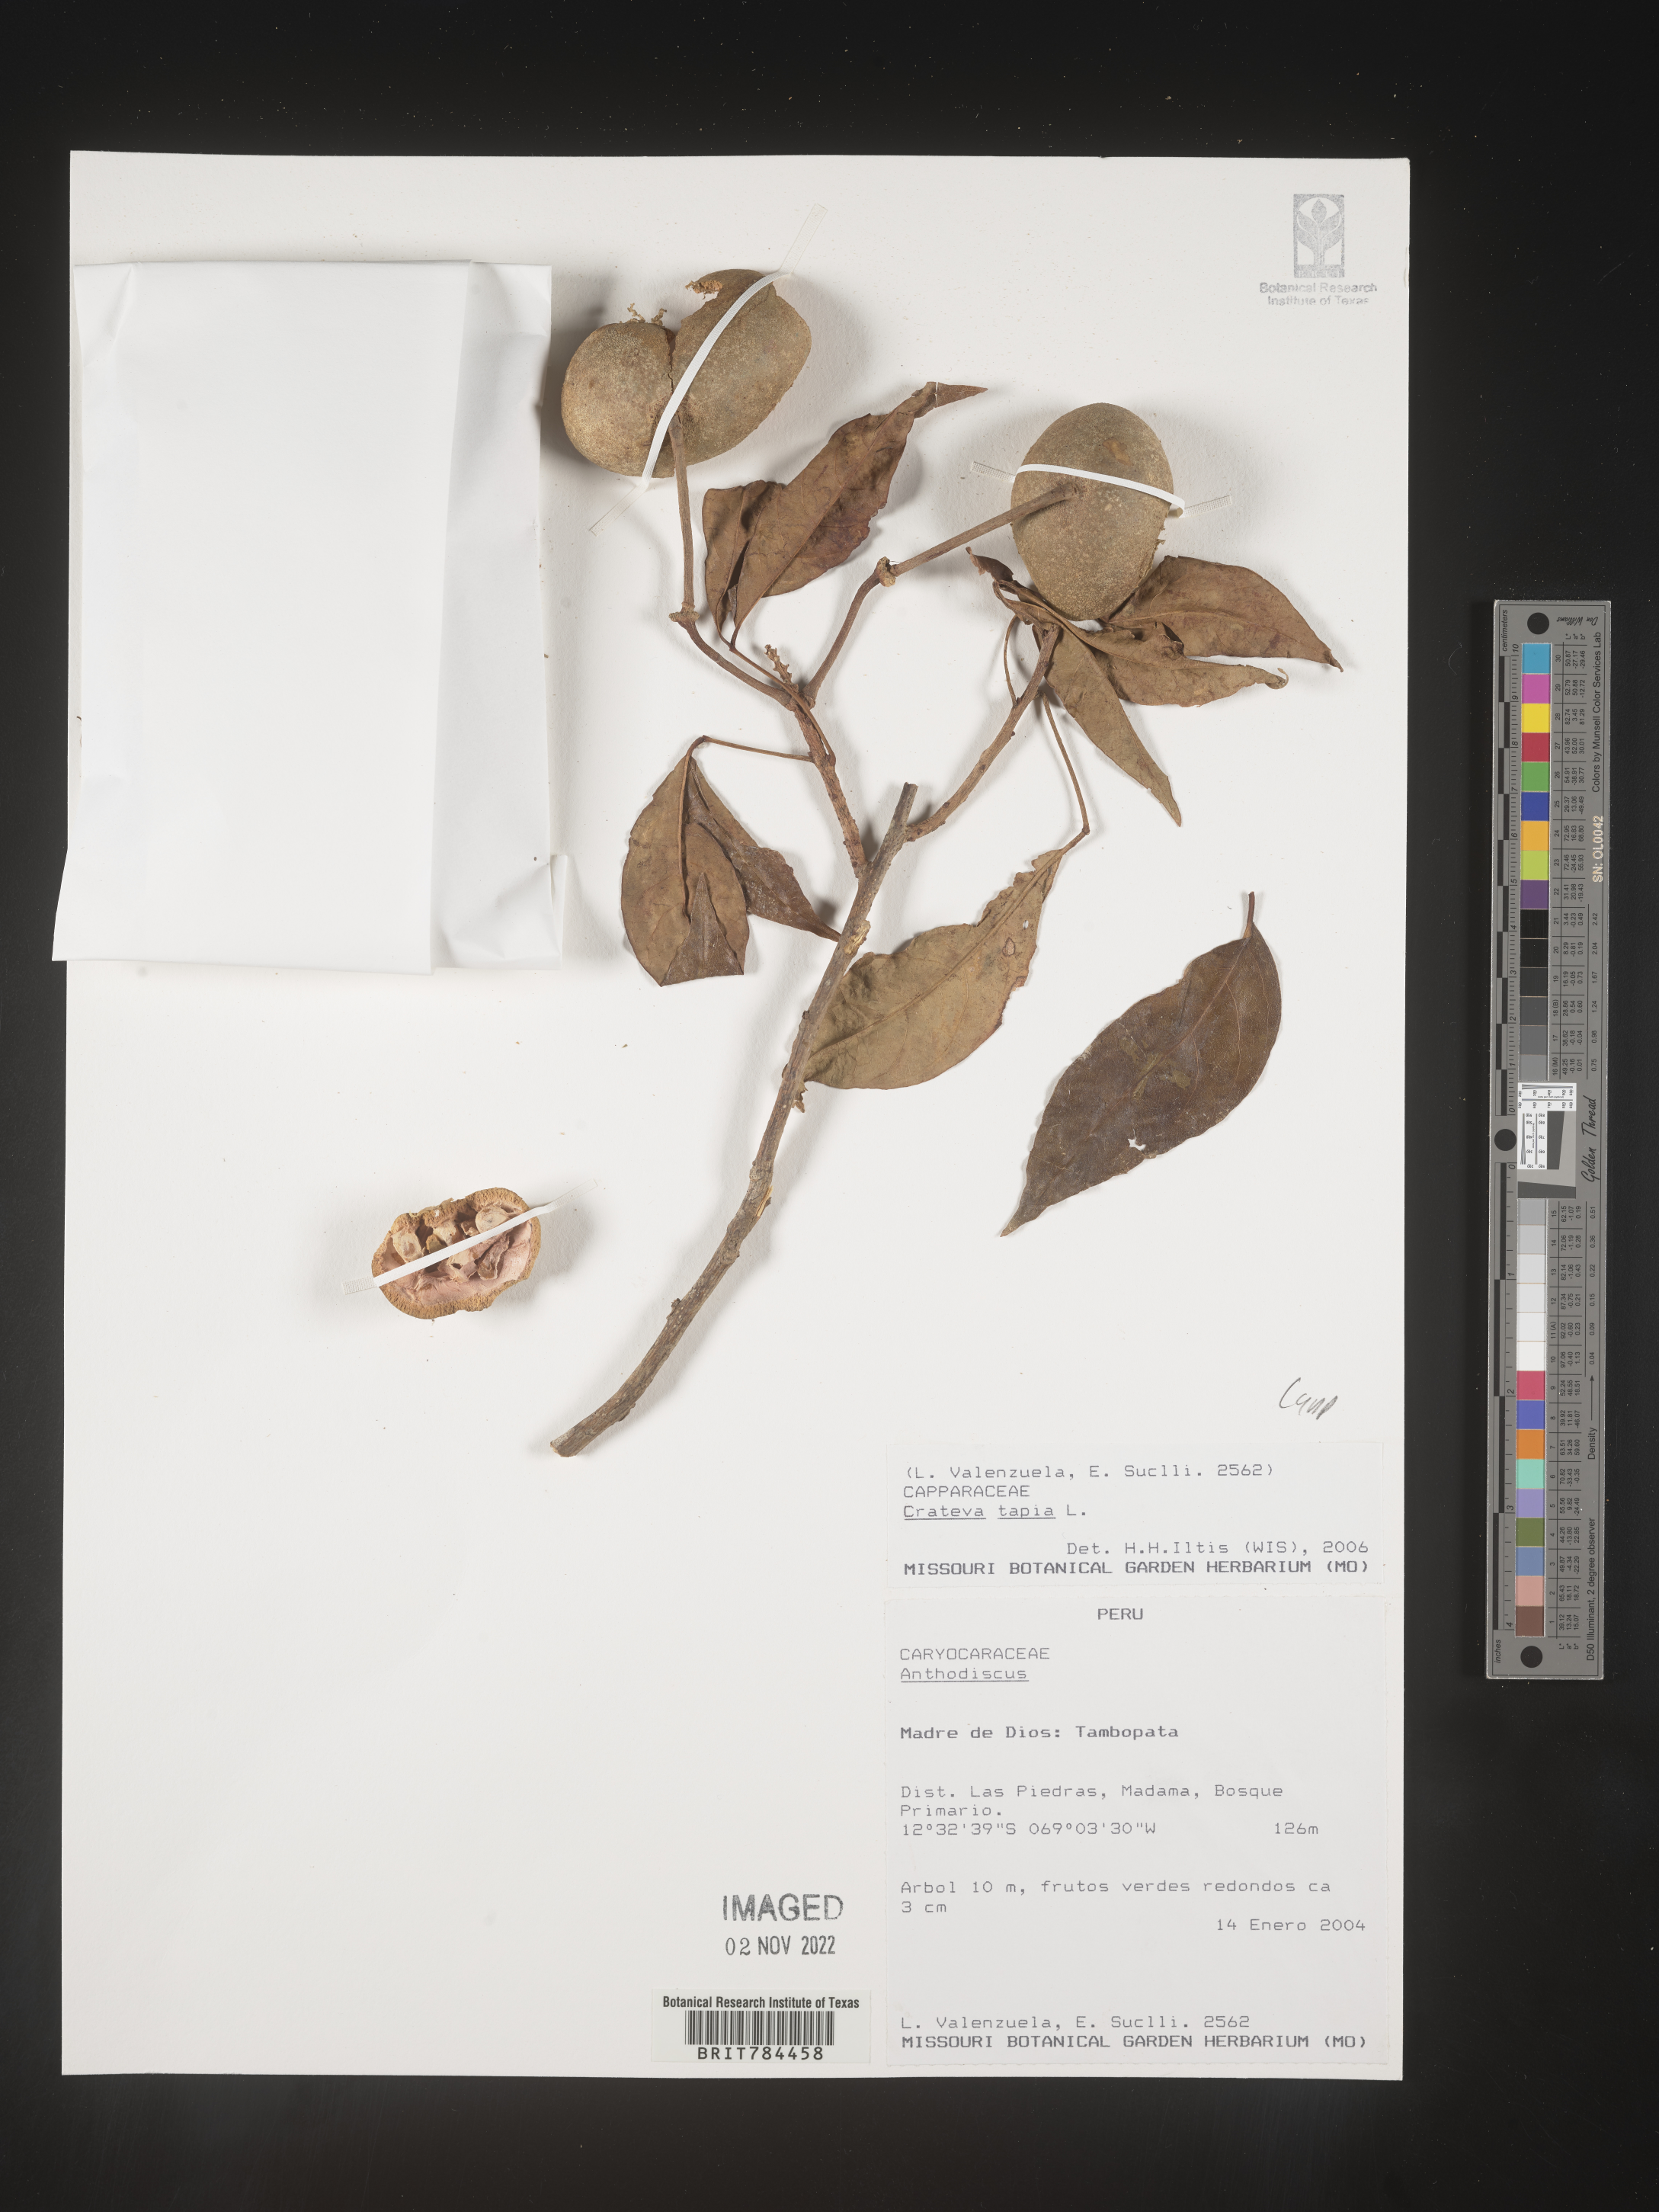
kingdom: Plantae
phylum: Tracheophyta
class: Magnoliopsida
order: Brassicales
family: Capparaceae
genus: Crateva
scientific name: Crateva
